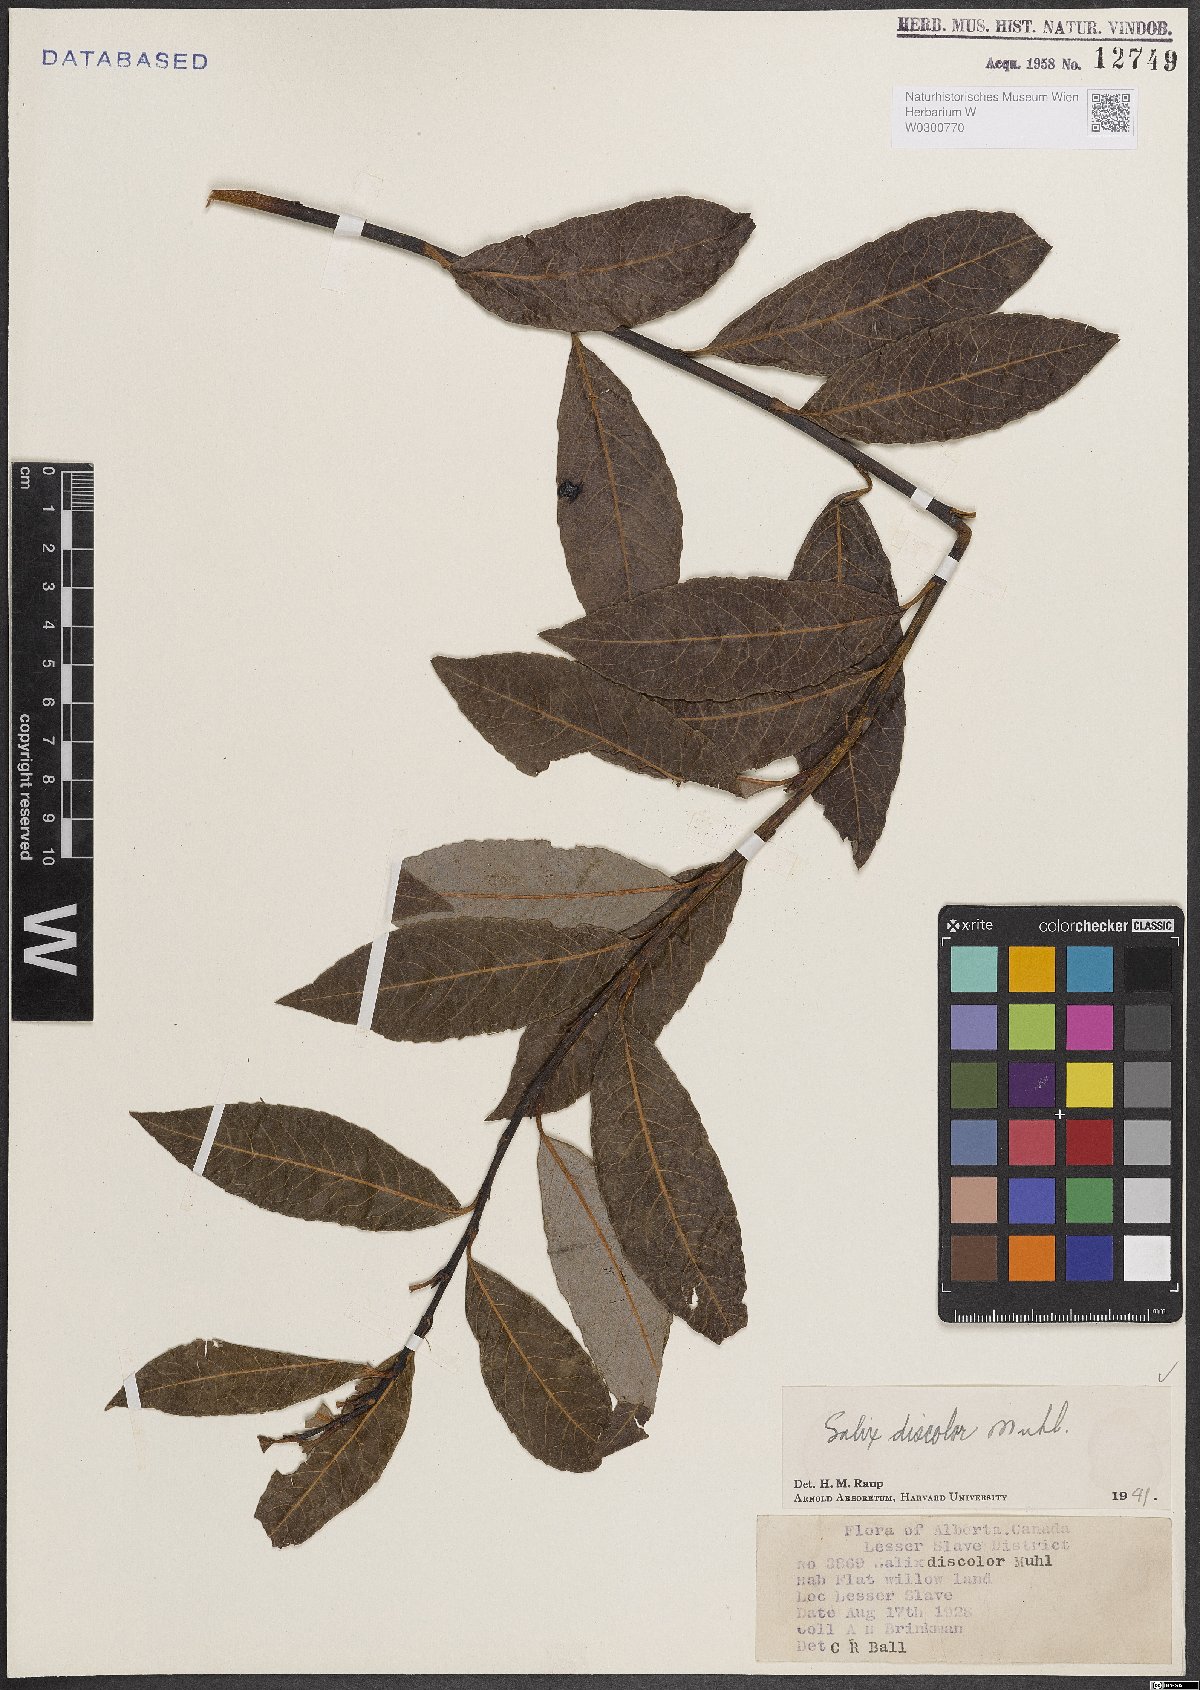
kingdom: Plantae
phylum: Tracheophyta
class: Magnoliopsida
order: Malpighiales
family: Salicaceae
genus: Salix
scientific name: Salix discolor
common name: Glaucous willow
